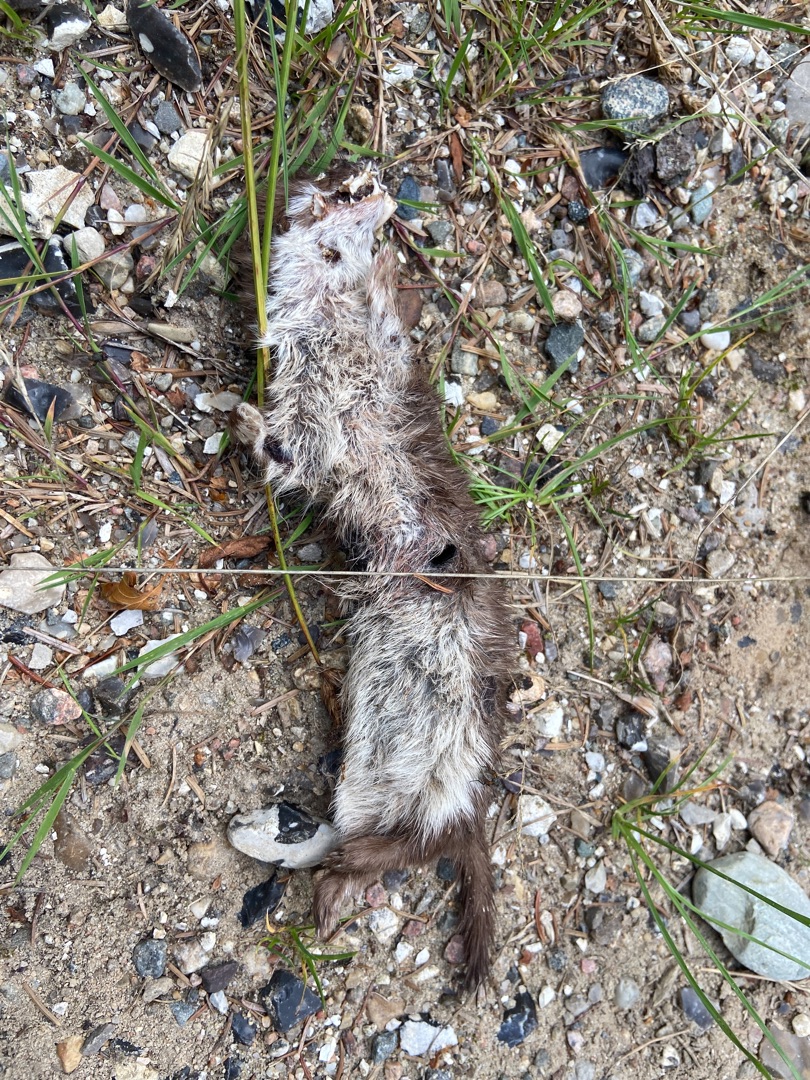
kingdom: Animalia
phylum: Chordata
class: Mammalia
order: Carnivora
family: Mustelidae
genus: Mustela
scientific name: Mustela nivalis
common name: Brud
